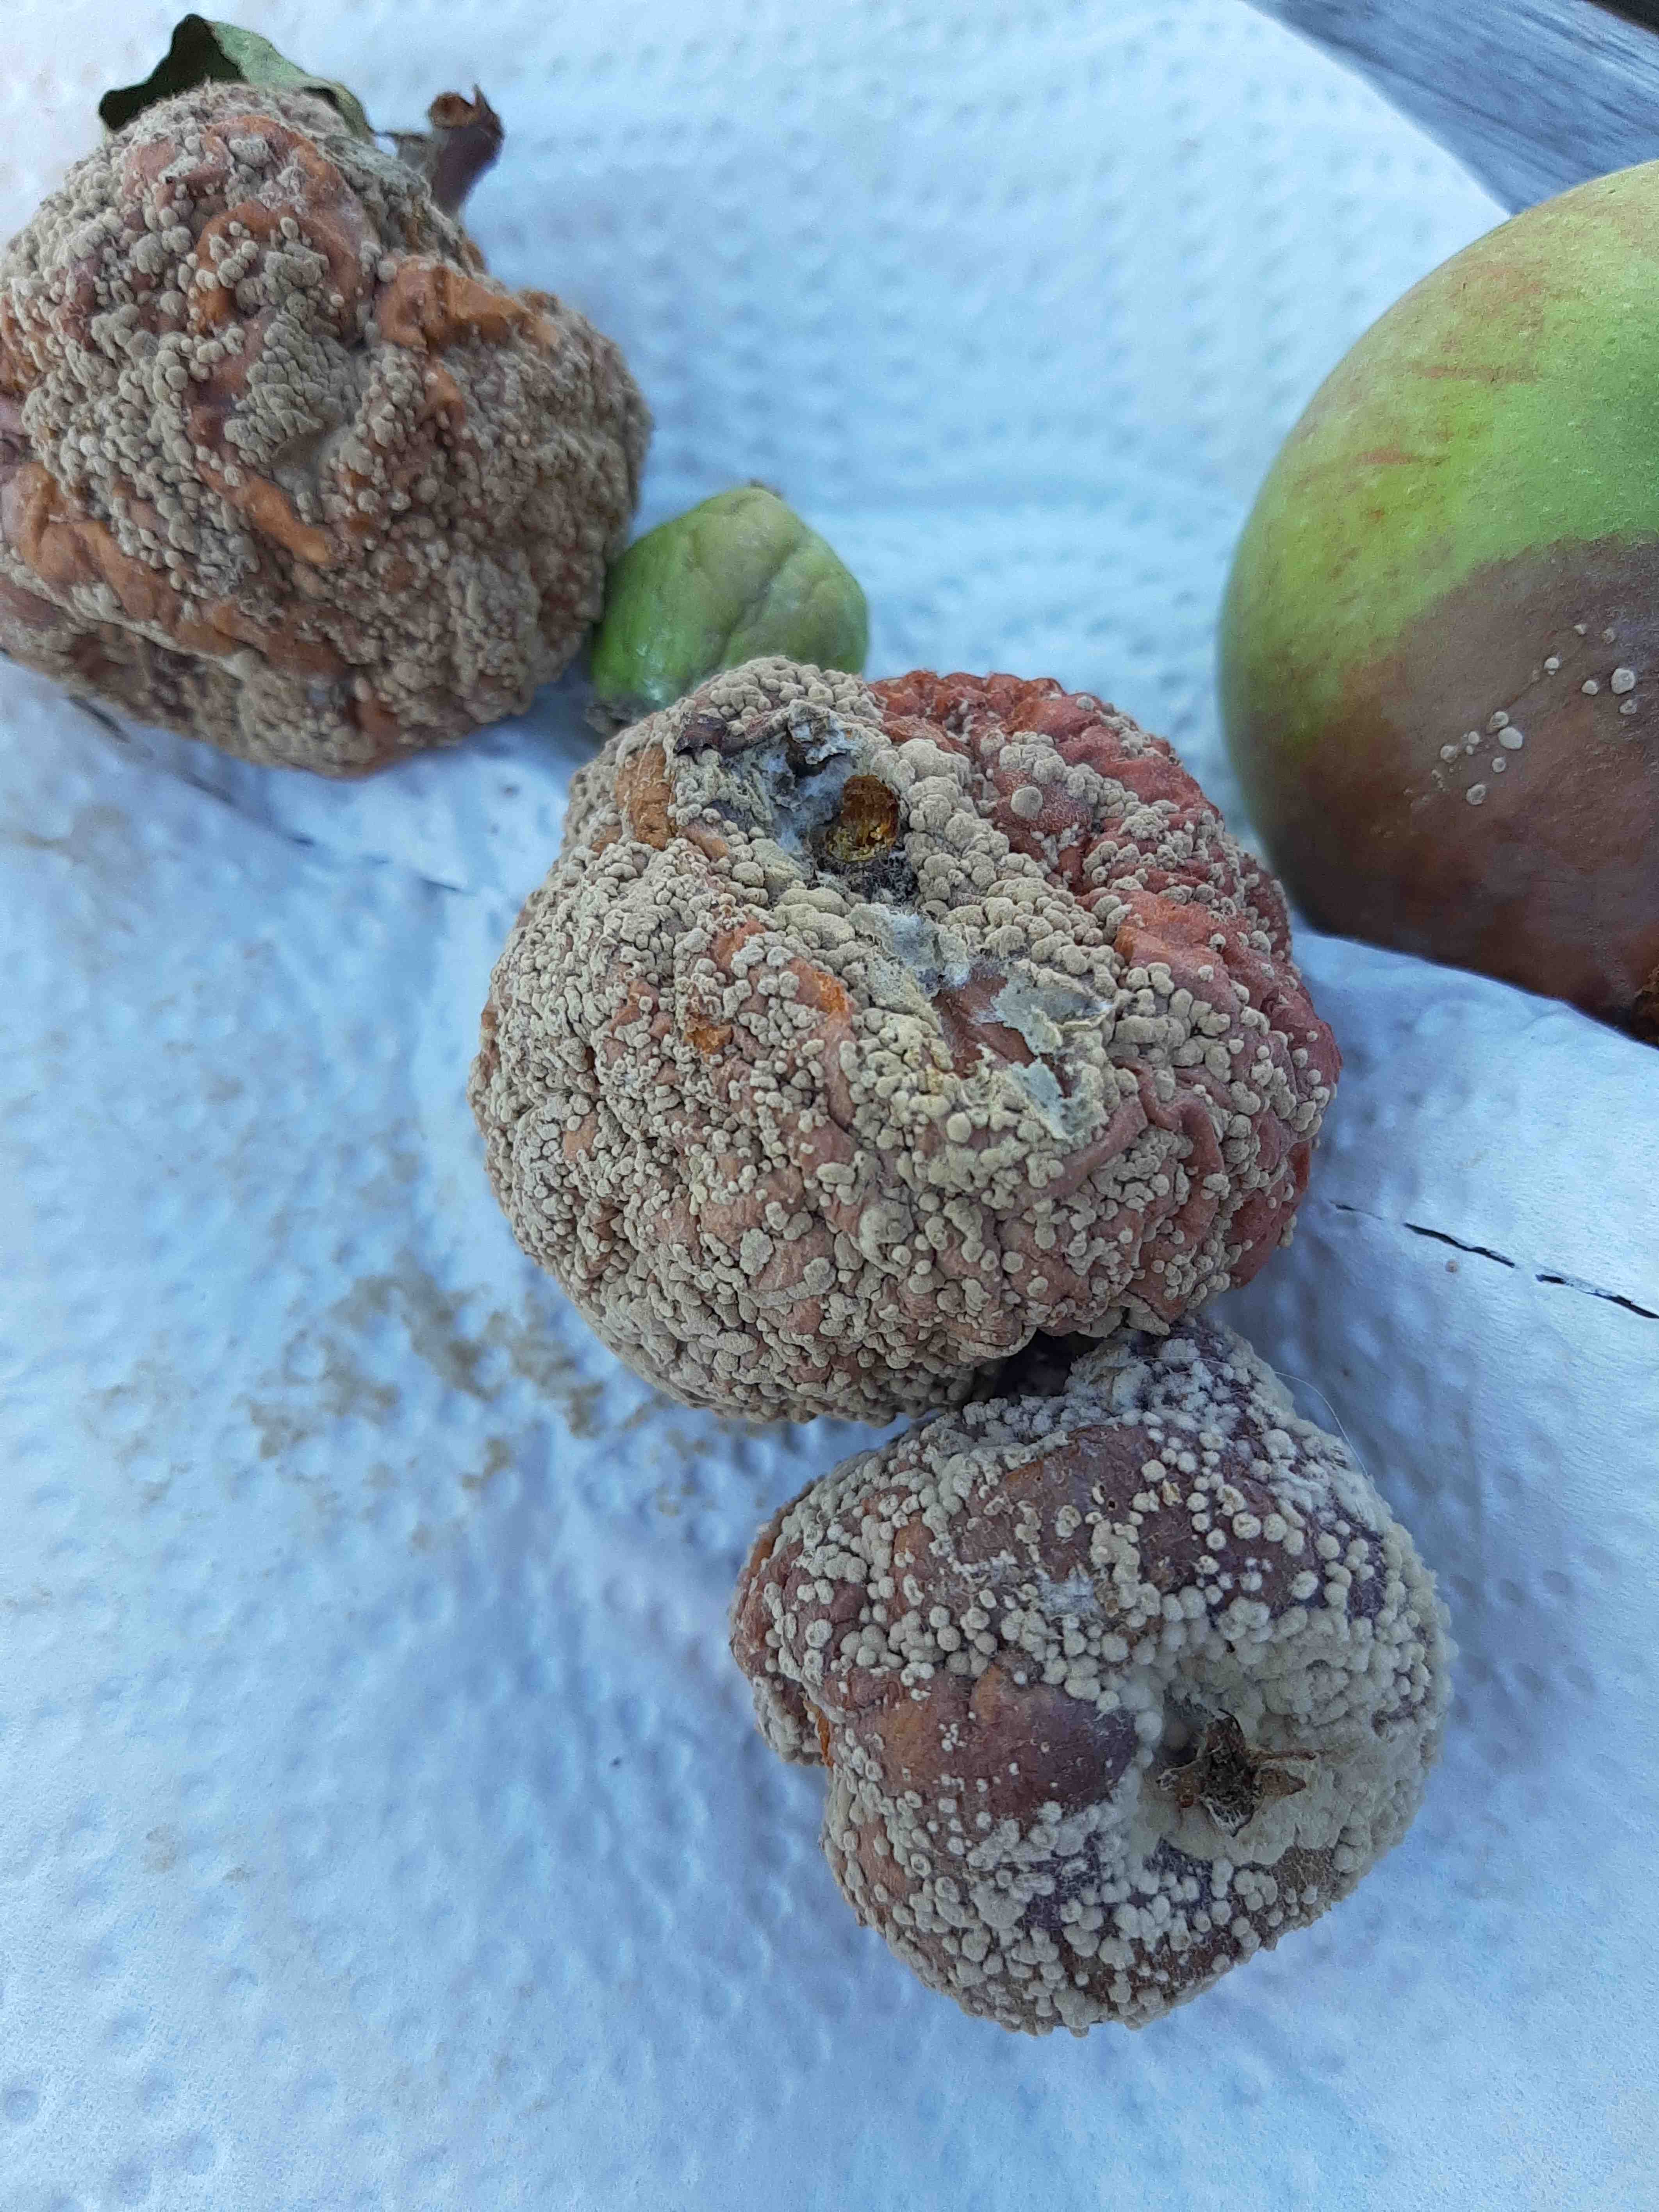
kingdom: Fungi
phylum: Ascomycota
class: Leotiomycetes
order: Helotiales
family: Sclerotiniaceae
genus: Monilinia
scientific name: Monilinia fructigena
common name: æble-knoldskive
